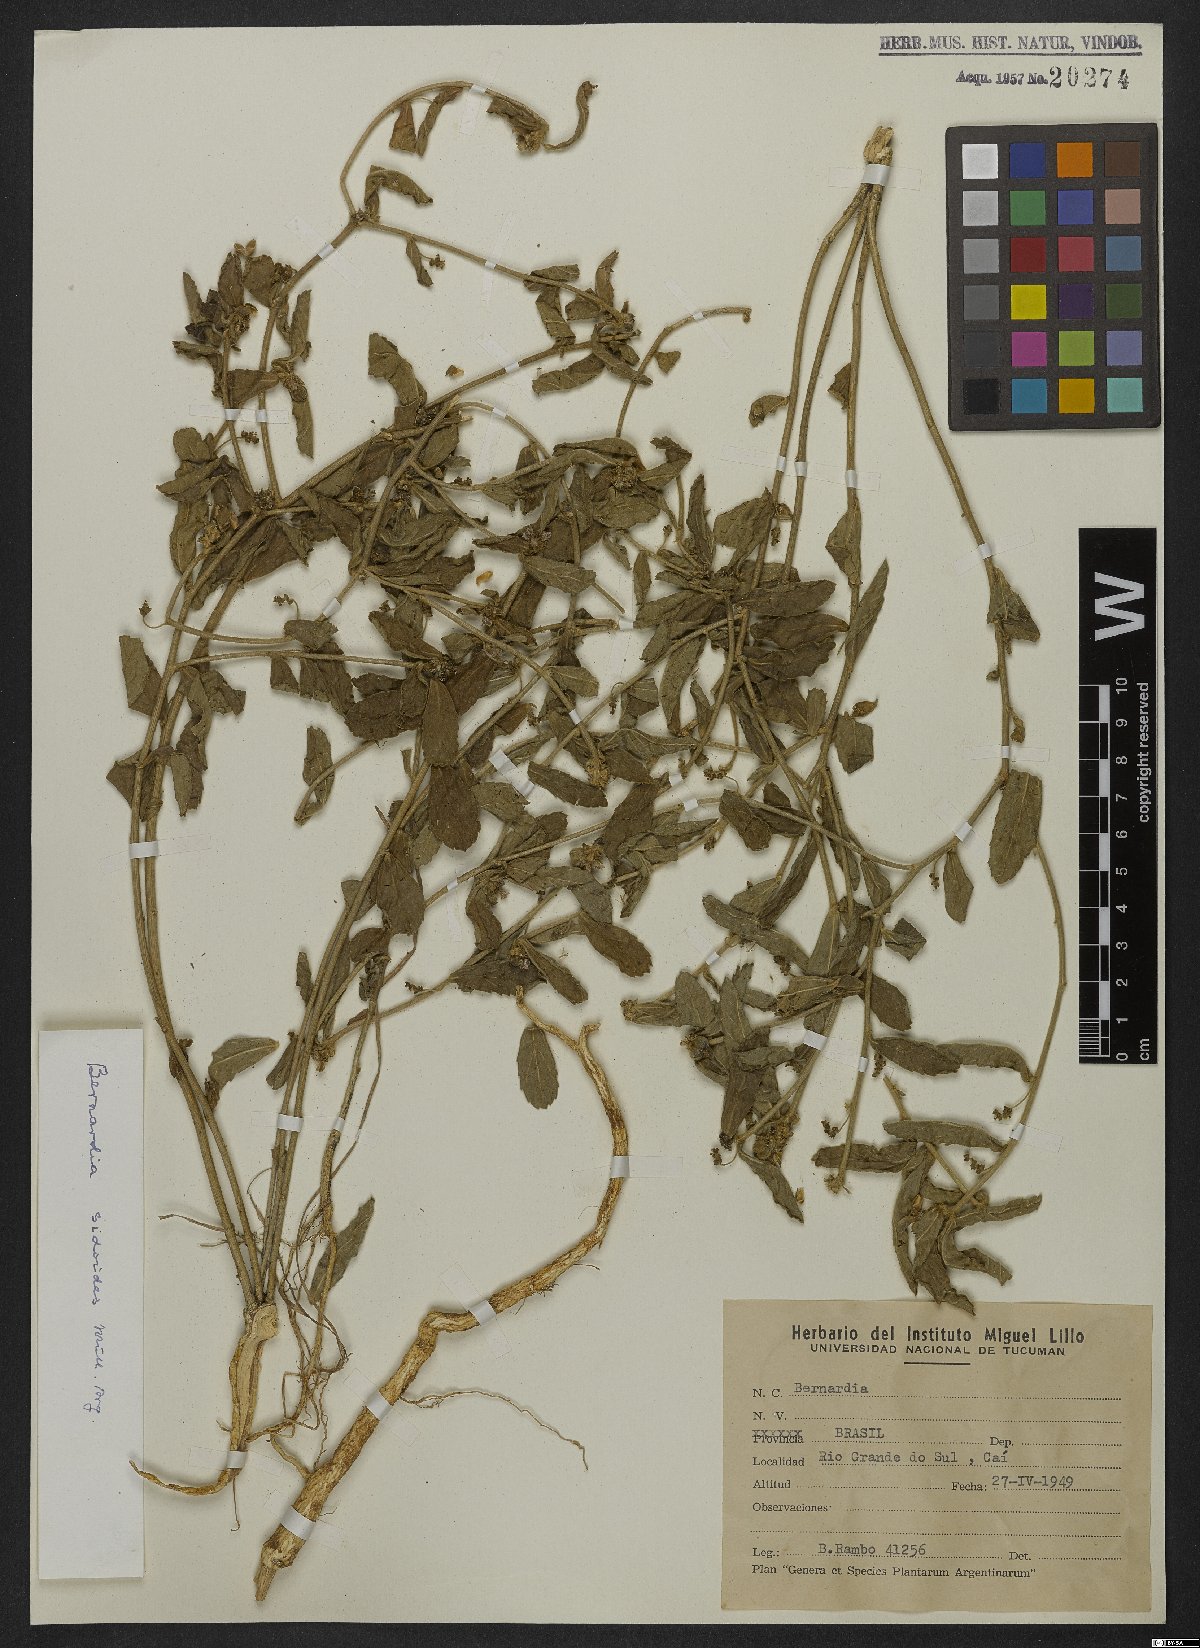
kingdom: Plantae
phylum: Tracheophyta
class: Magnoliopsida
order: Malpighiales
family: Euphorbiaceae
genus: Bernardia
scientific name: Bernardia sidoides
